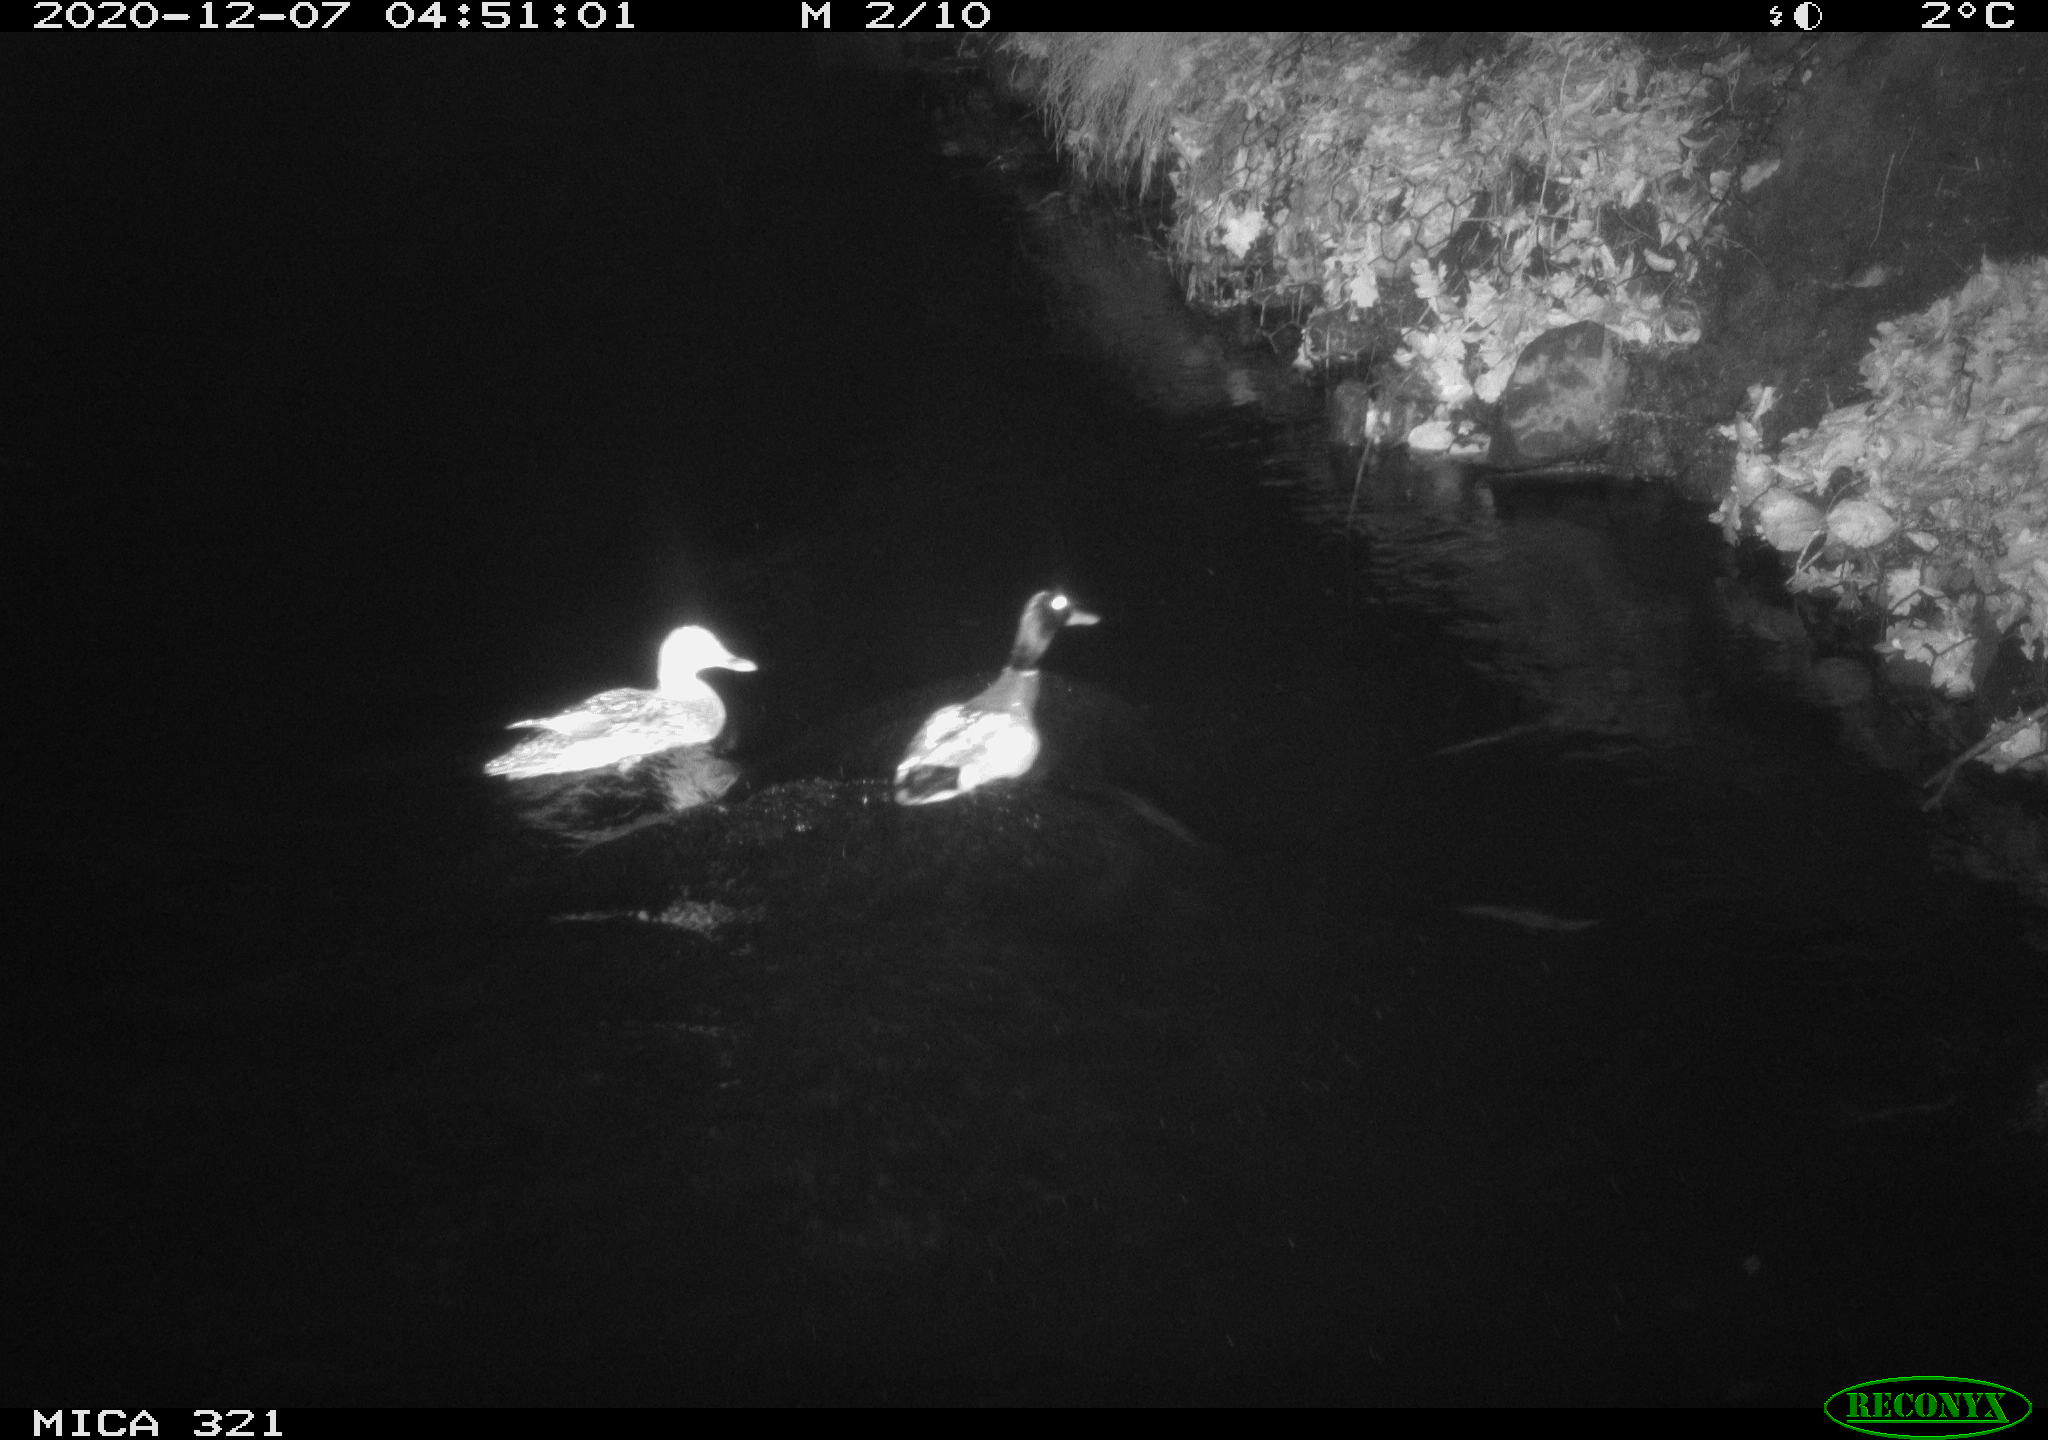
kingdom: Animalia
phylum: Chordata
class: Aves
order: Anseriformes
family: Anatidae
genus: Anas
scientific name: Anas platyrhynchos
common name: Mallard
